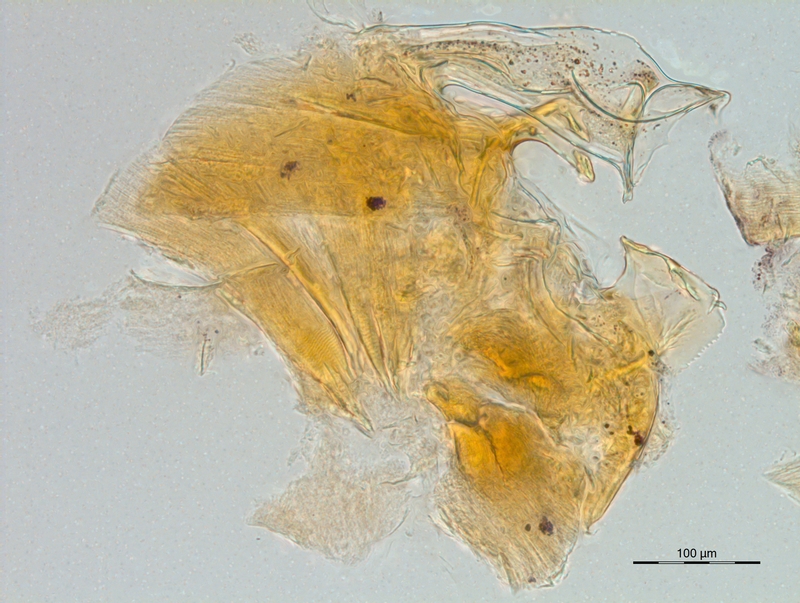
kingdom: Animalia
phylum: Arthropoda
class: Diplopoda
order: Chordeumatida
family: Craspedosomatidae
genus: Carniosoma
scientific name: Carniosoma abietum
